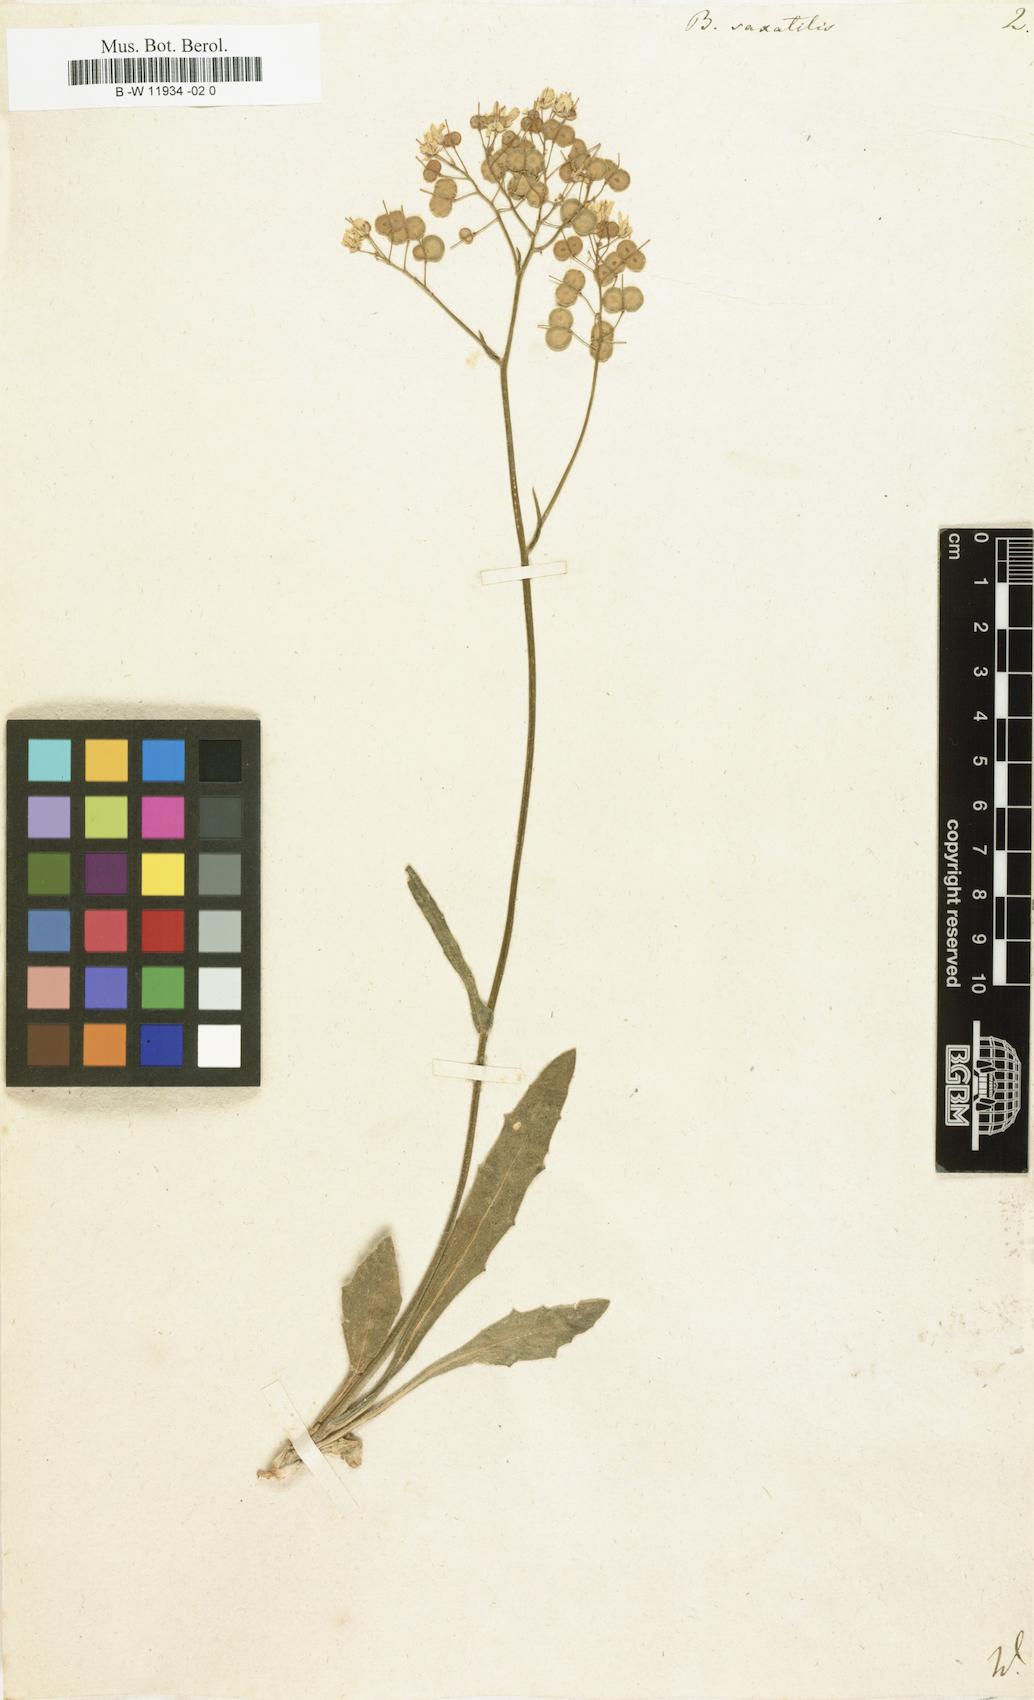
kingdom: Plantae
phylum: Tracheophyta
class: Magnoliopsida
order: Brassicales
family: Brassicaceae
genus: Biscutella
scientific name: Biscutella
